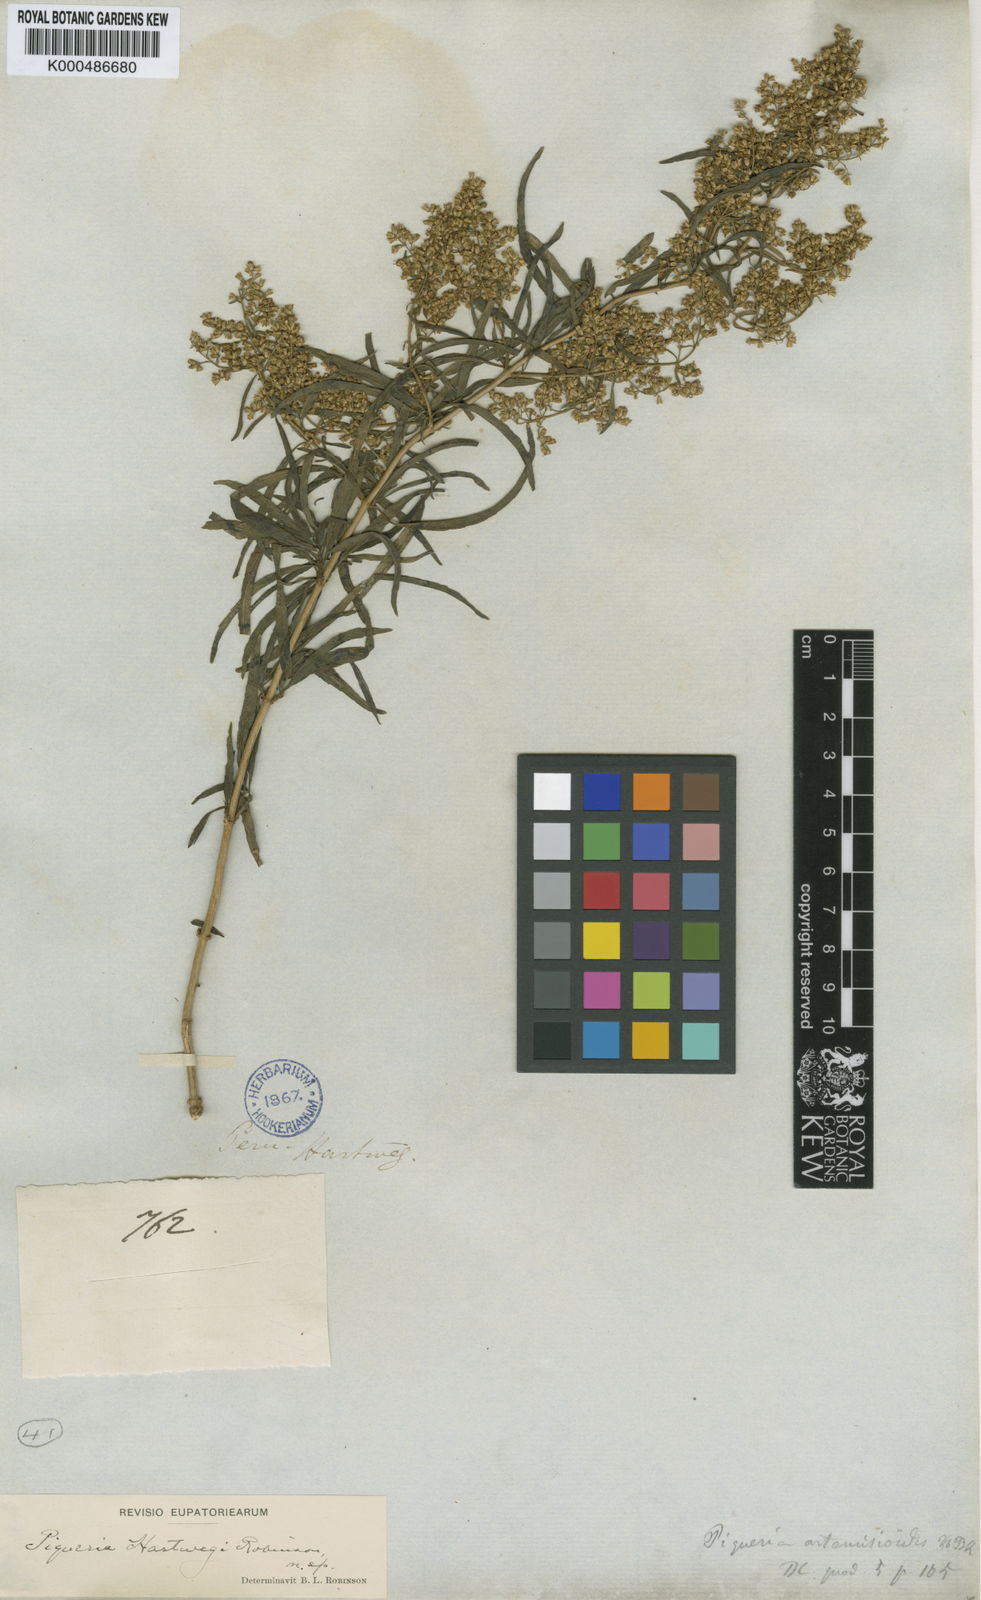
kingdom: Plantae
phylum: Tracheophyta
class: Magnoliopsida
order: Asterales
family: Asteraceae
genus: Ophryosporus
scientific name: Ophryosporus hartwegii
